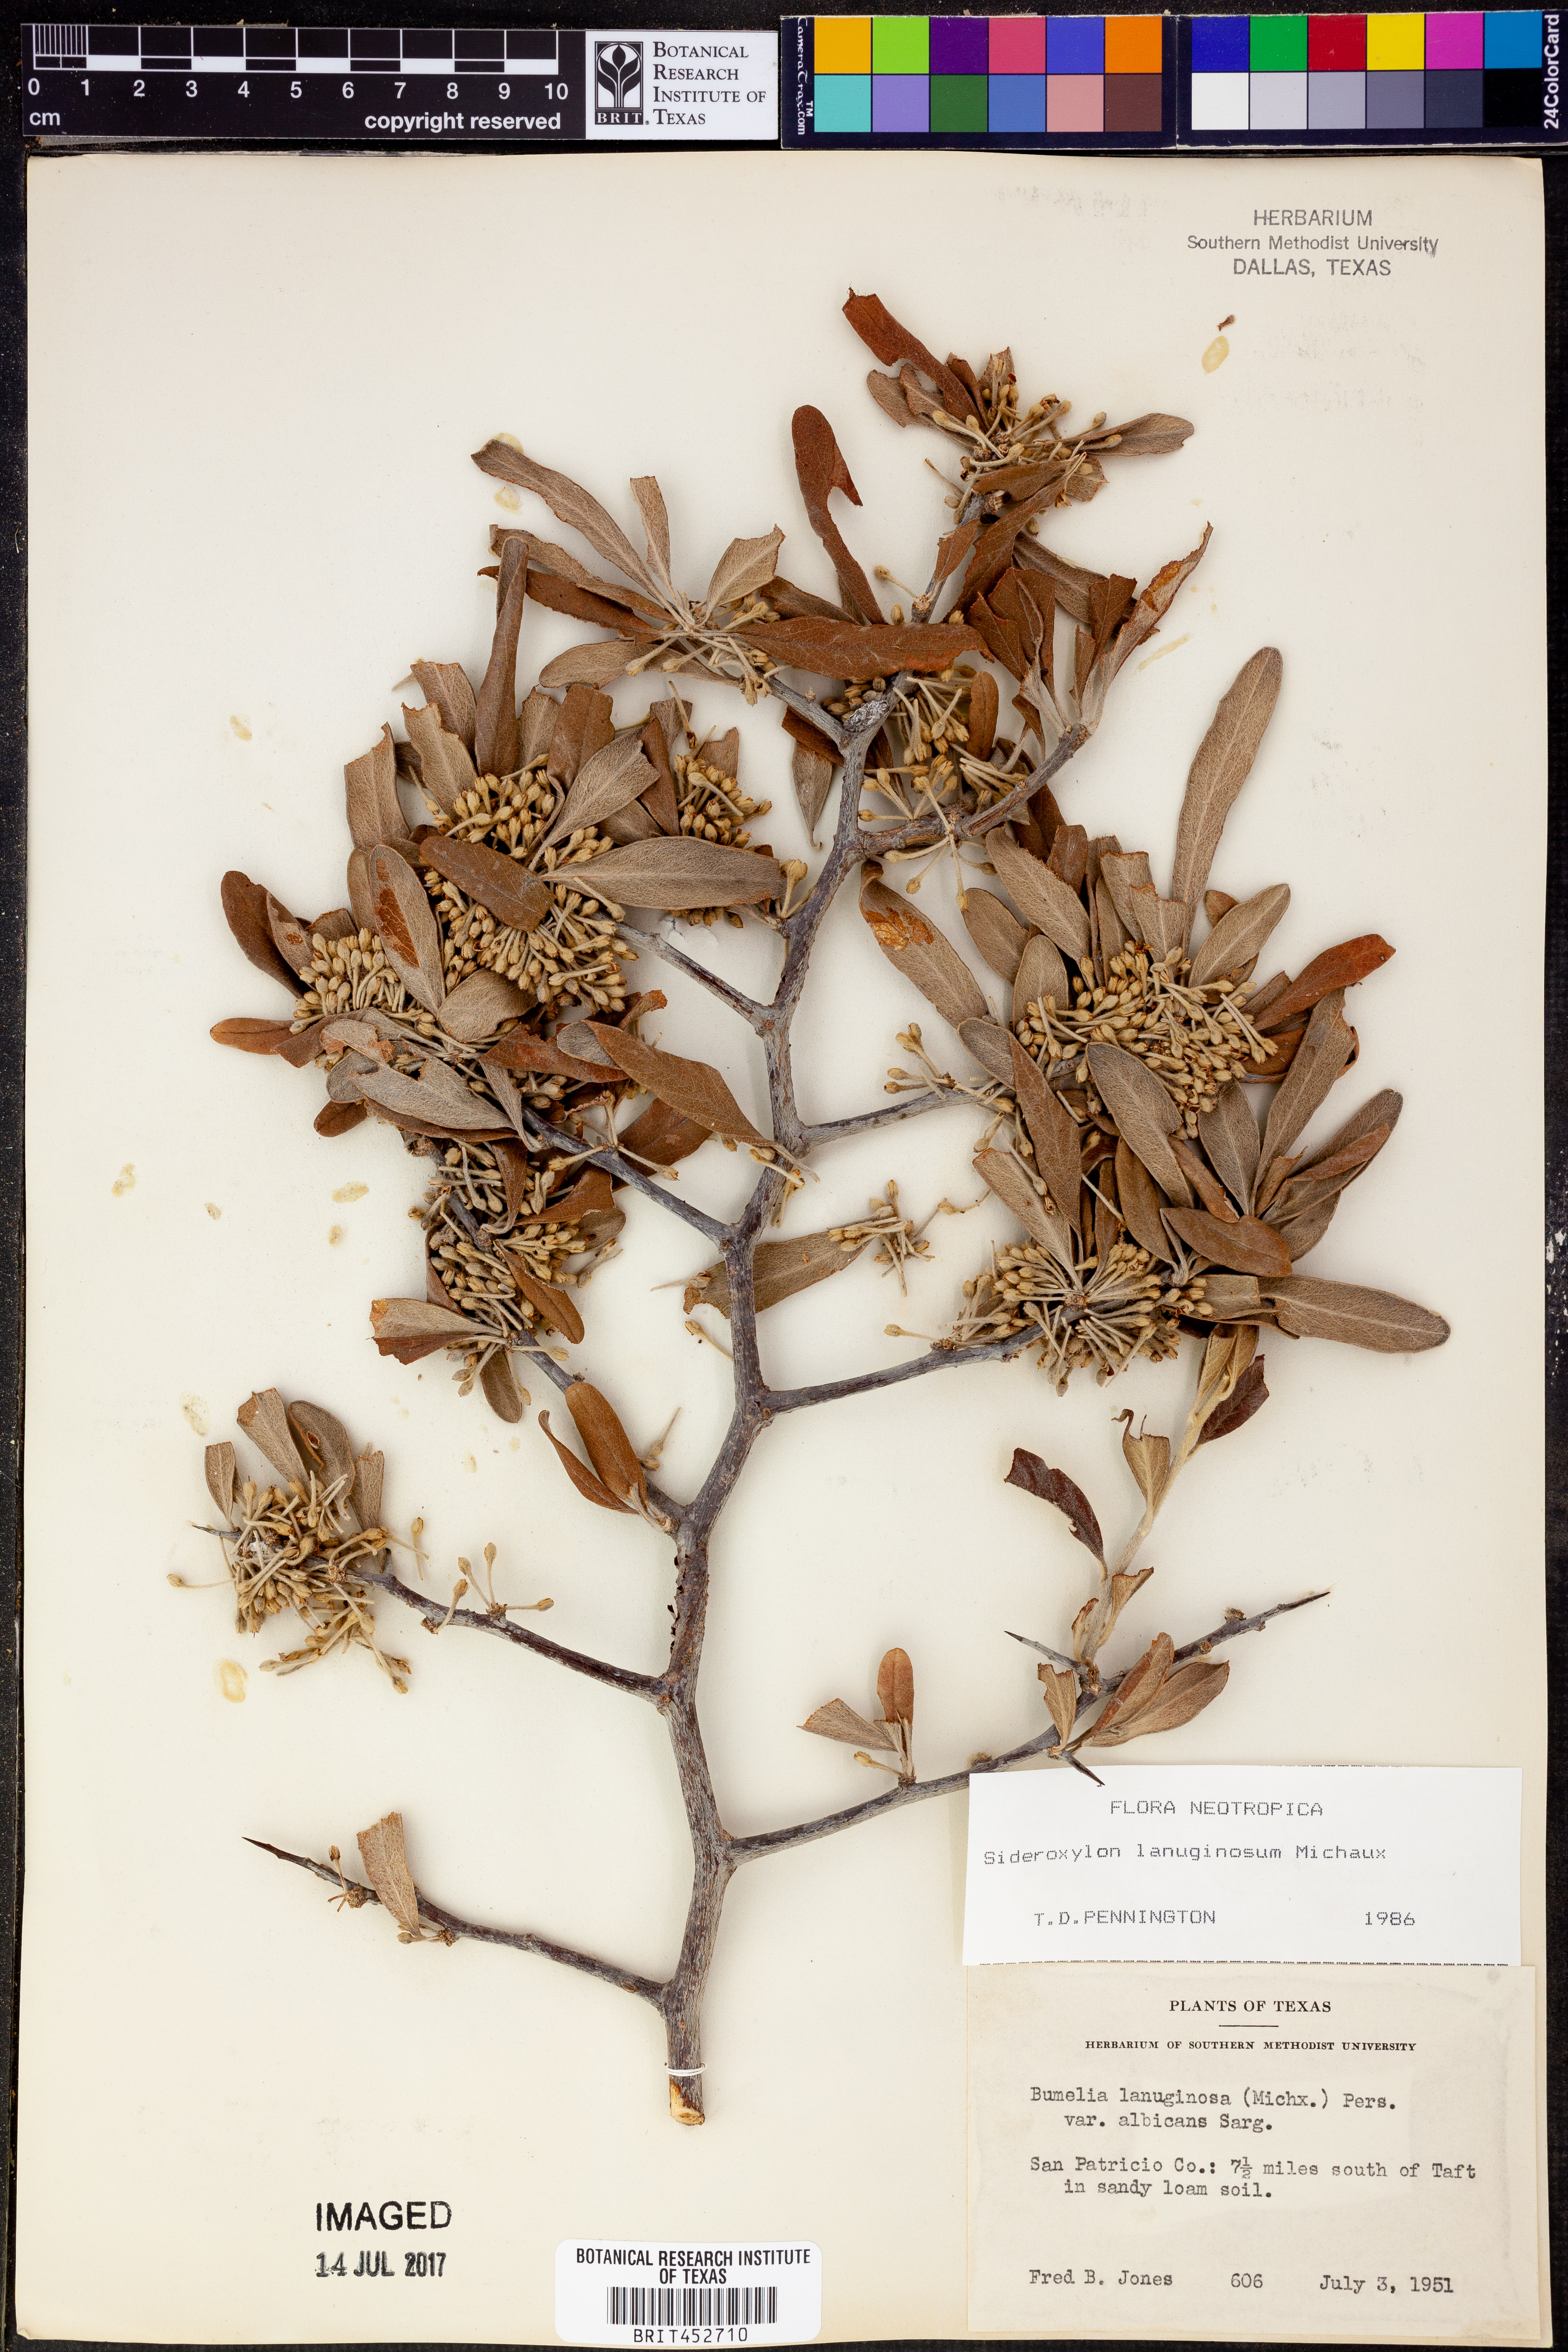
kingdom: Plantae
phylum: Tracheophyta
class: Magnoliopsida
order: Ericales
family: Sapotaceae
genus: Sideroxylon
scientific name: Sideroxylon lanuginosum
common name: Chittamwood
